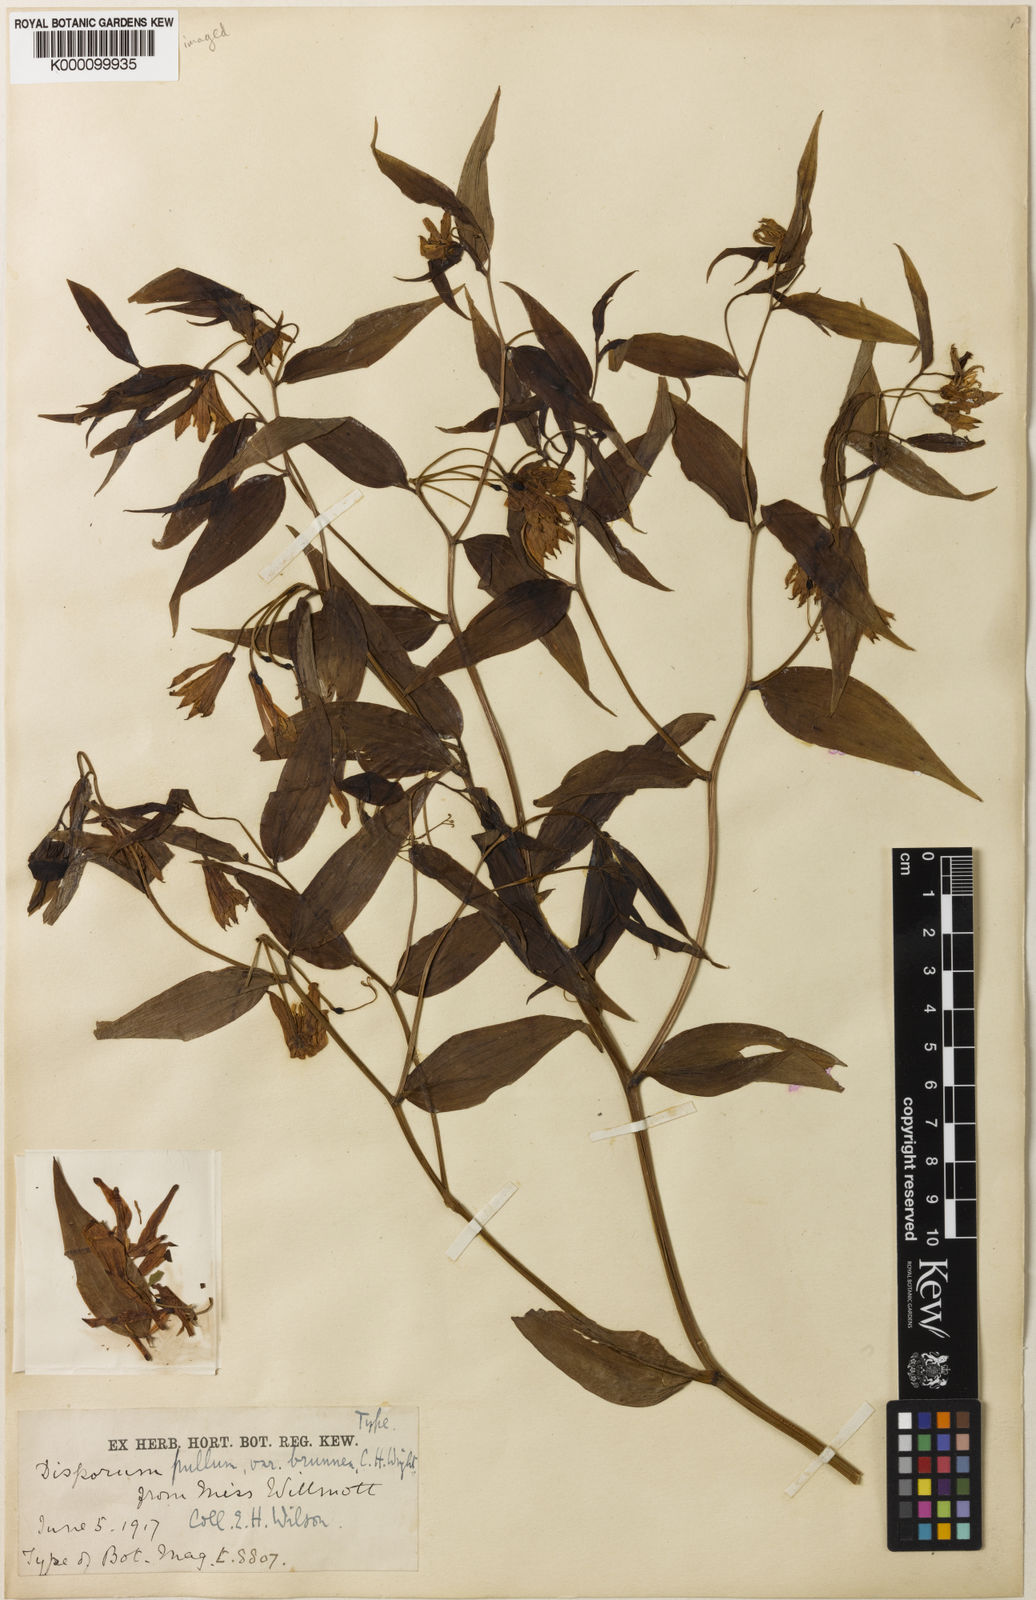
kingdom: Plantae
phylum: Tracheophyta
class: Liliopsida
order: Liliales
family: Colchicaceae
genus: Disporum
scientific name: Disporum cantoniense
